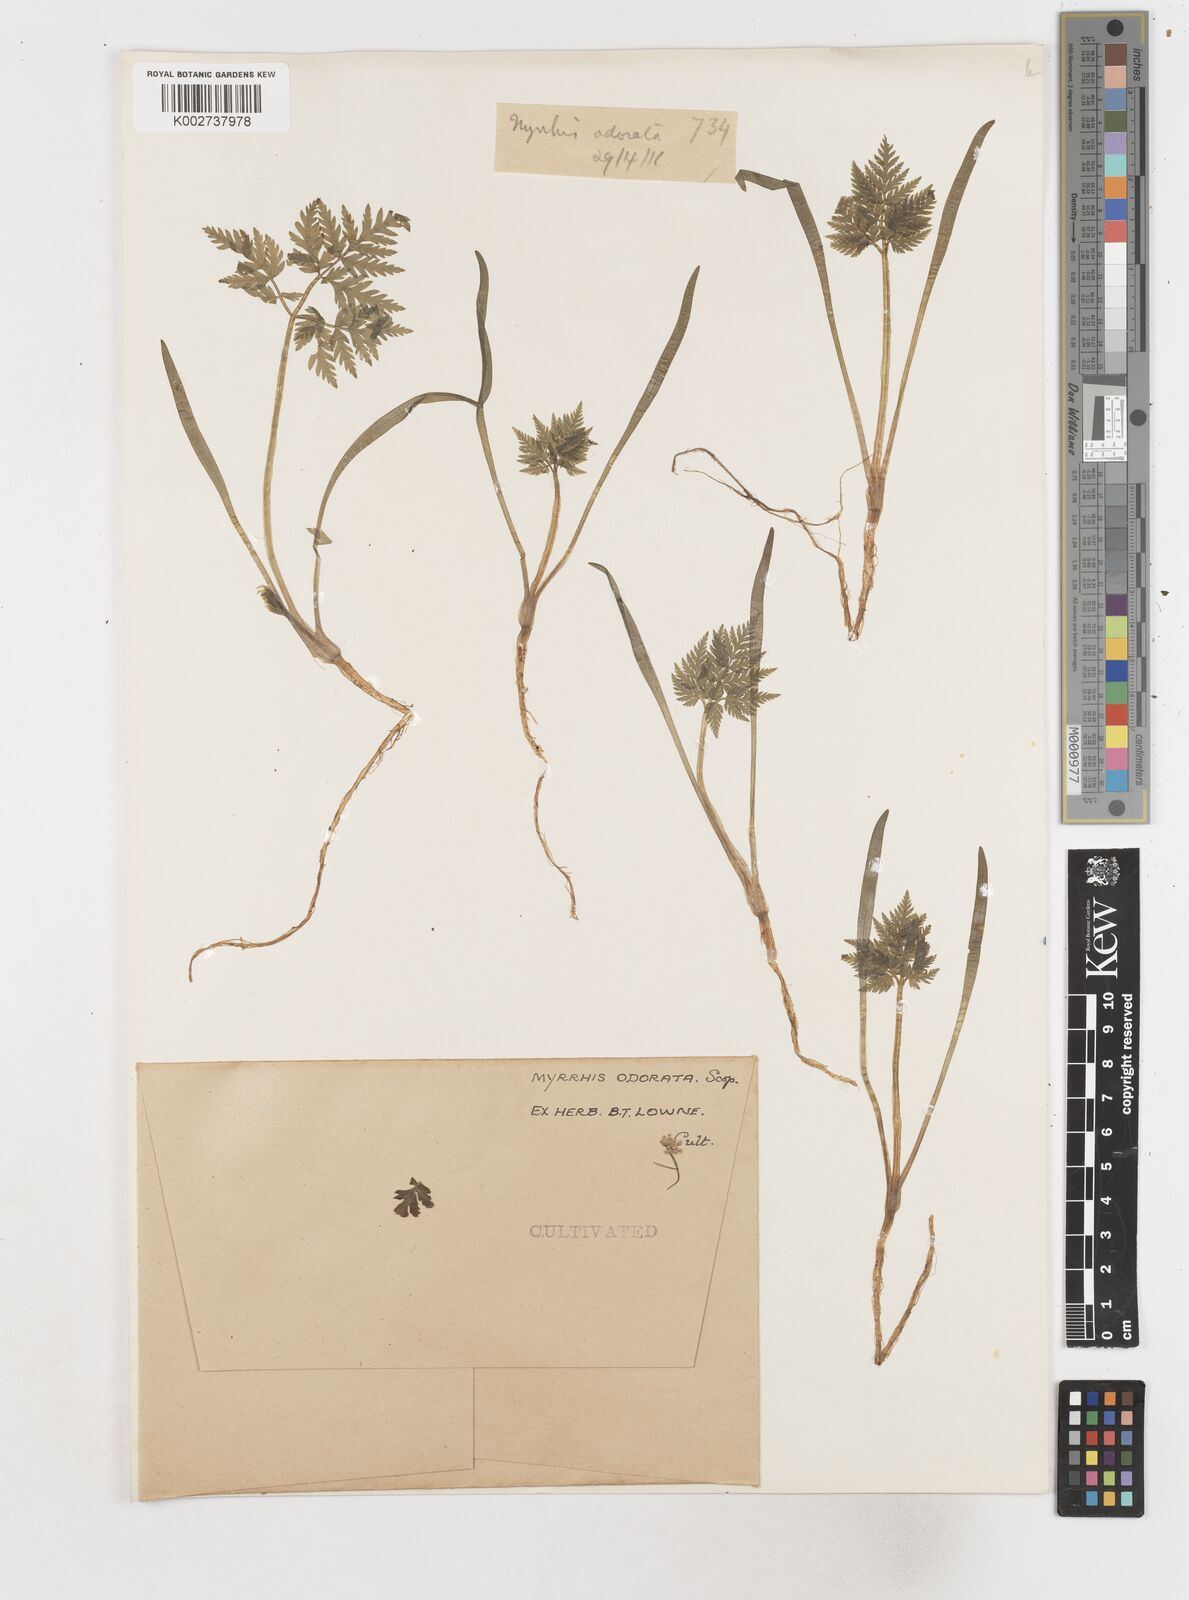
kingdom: Plantae
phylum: Tracheophyta
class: Magnoliopsida
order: Apiales
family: Apiaceae
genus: Myrrhis
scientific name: Myrrhis odorata
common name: Sweet cicely
